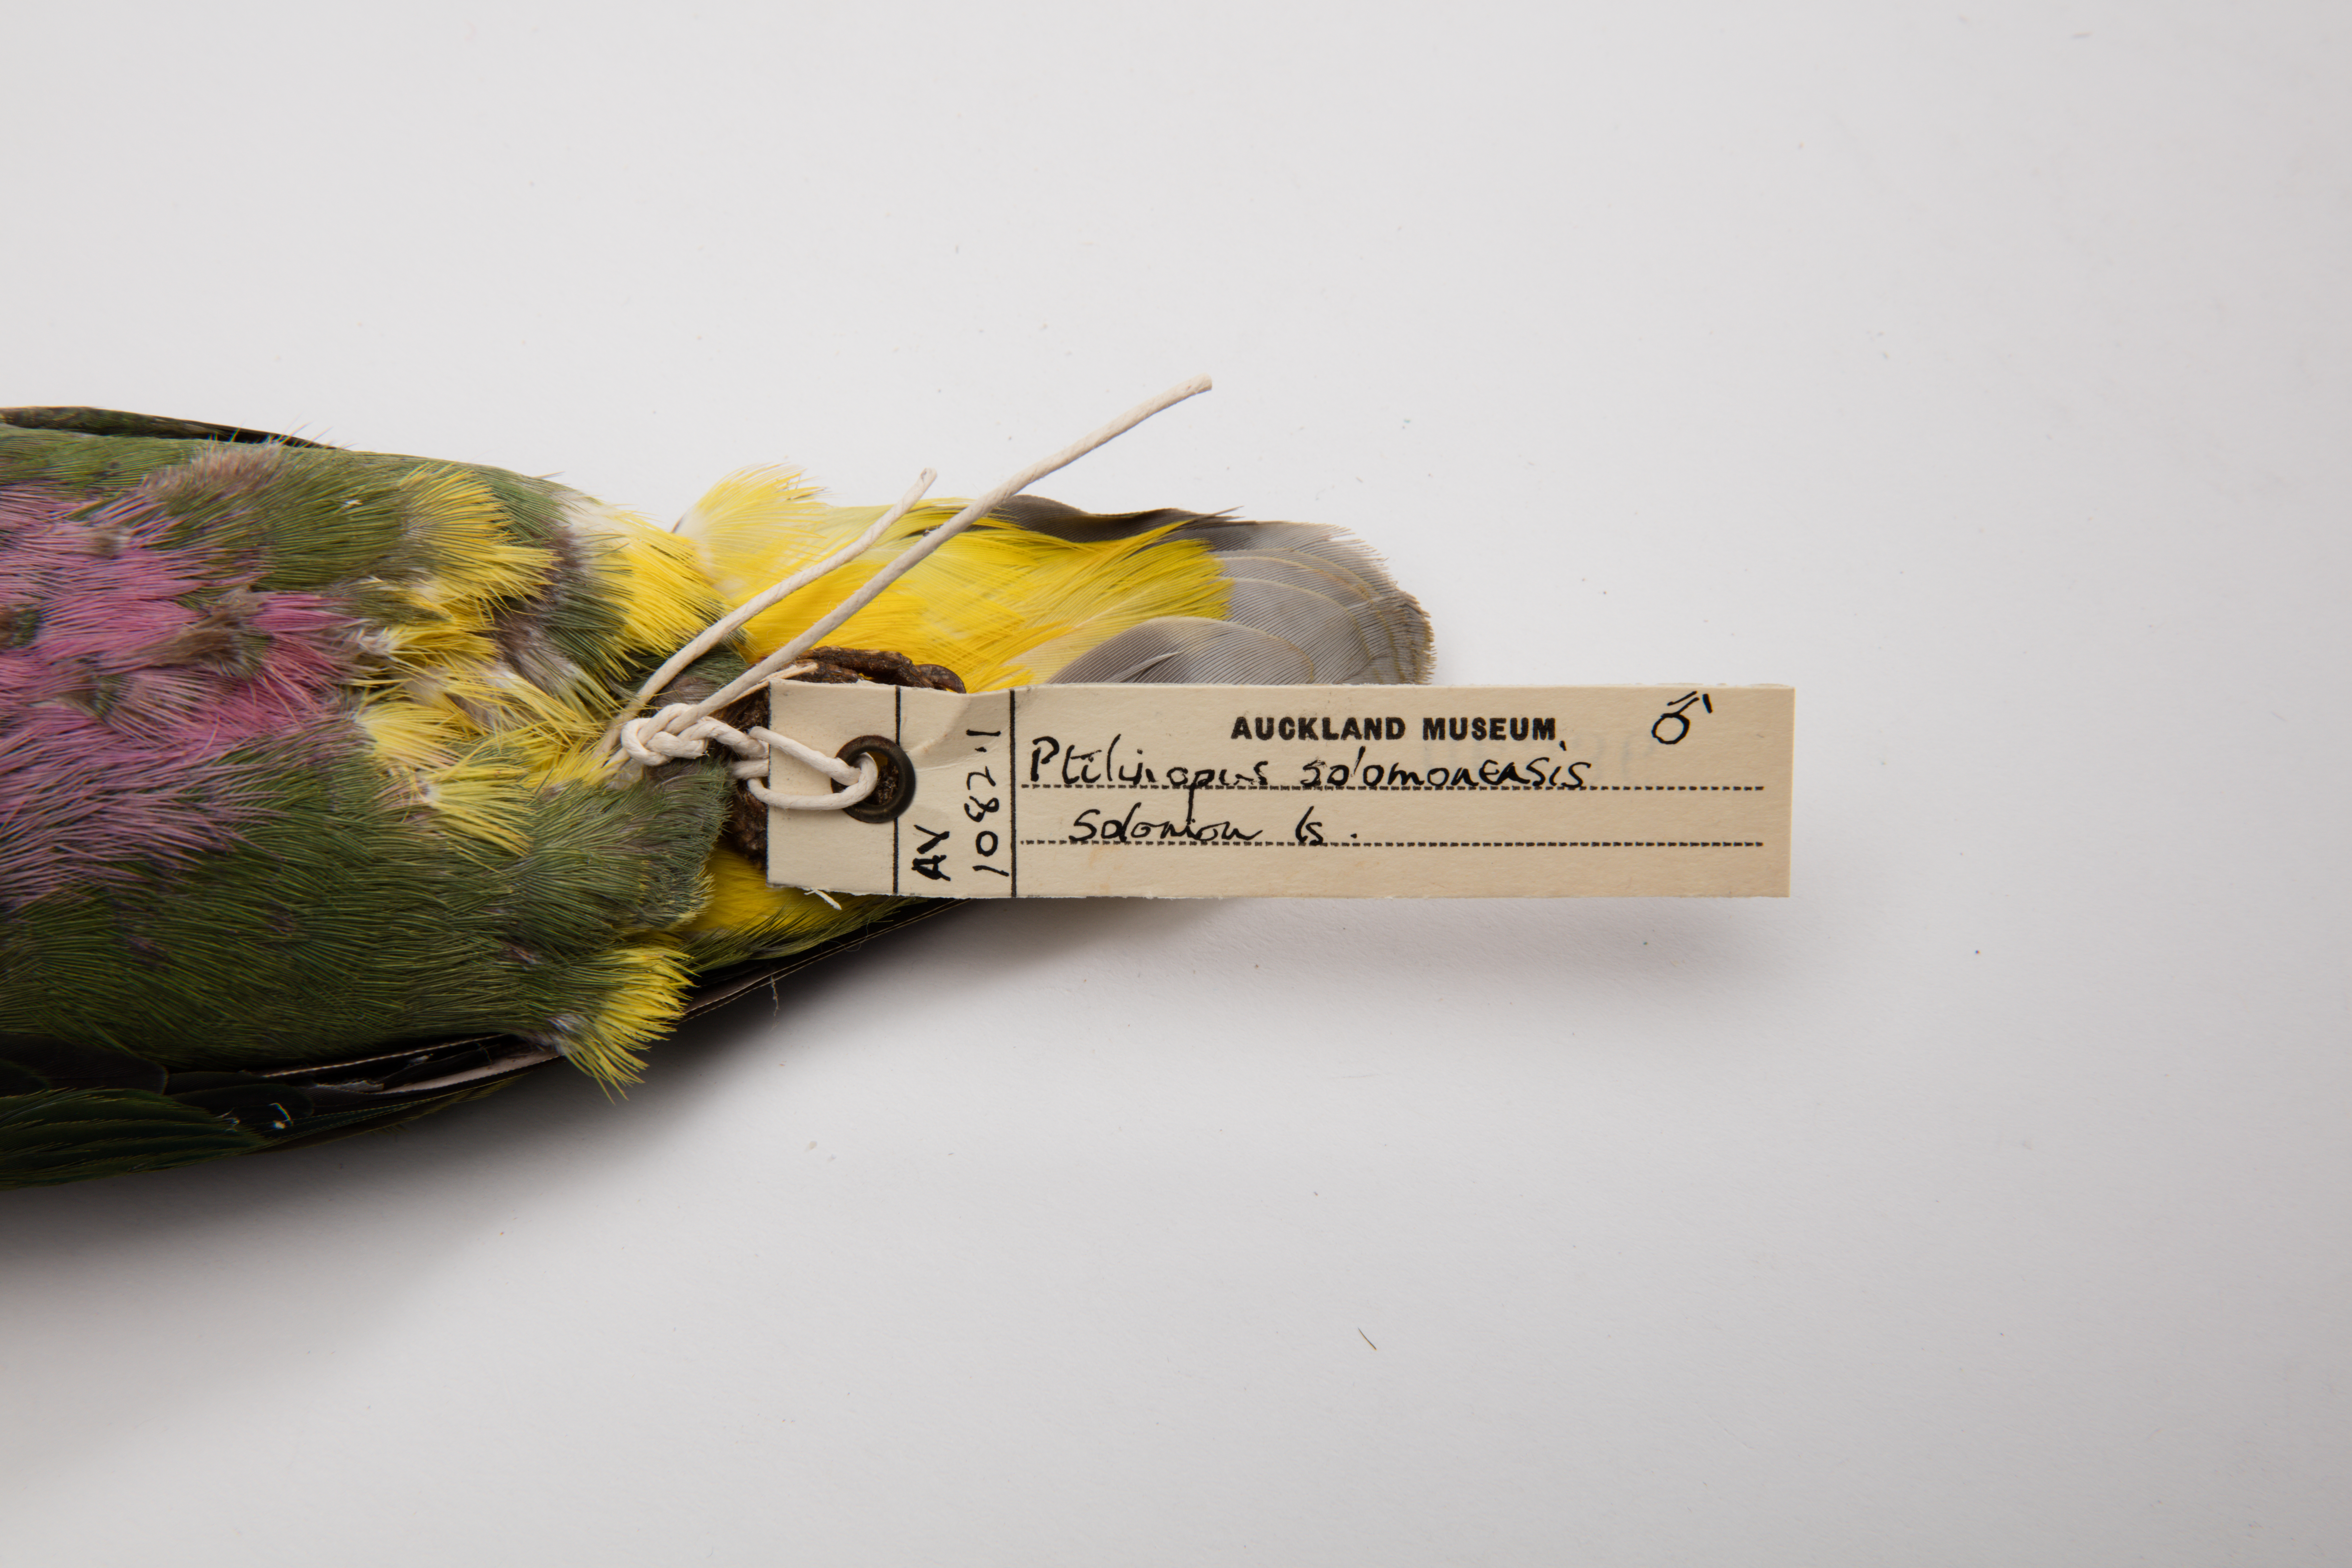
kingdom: Animalia
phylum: Chordata
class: Aves
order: Columbiformes
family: Columbidae
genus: Ptilinopus
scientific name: Ptilinopus solomonensis
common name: Yellow-bibbed fruit dove
